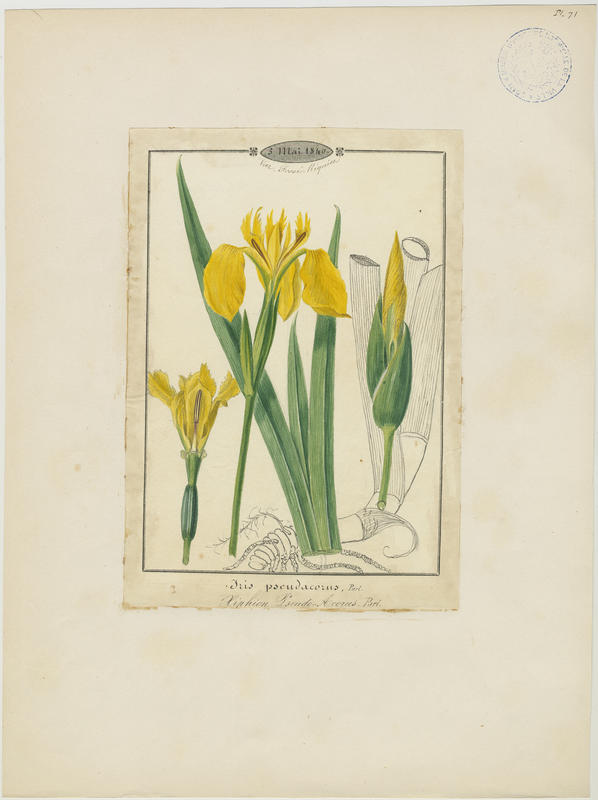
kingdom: Plantae
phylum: Tracheophyta
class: Liliopsida
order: Asparagales
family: Iridaceae
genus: Iris
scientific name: Iris pseudacorus
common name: Yellow flag
